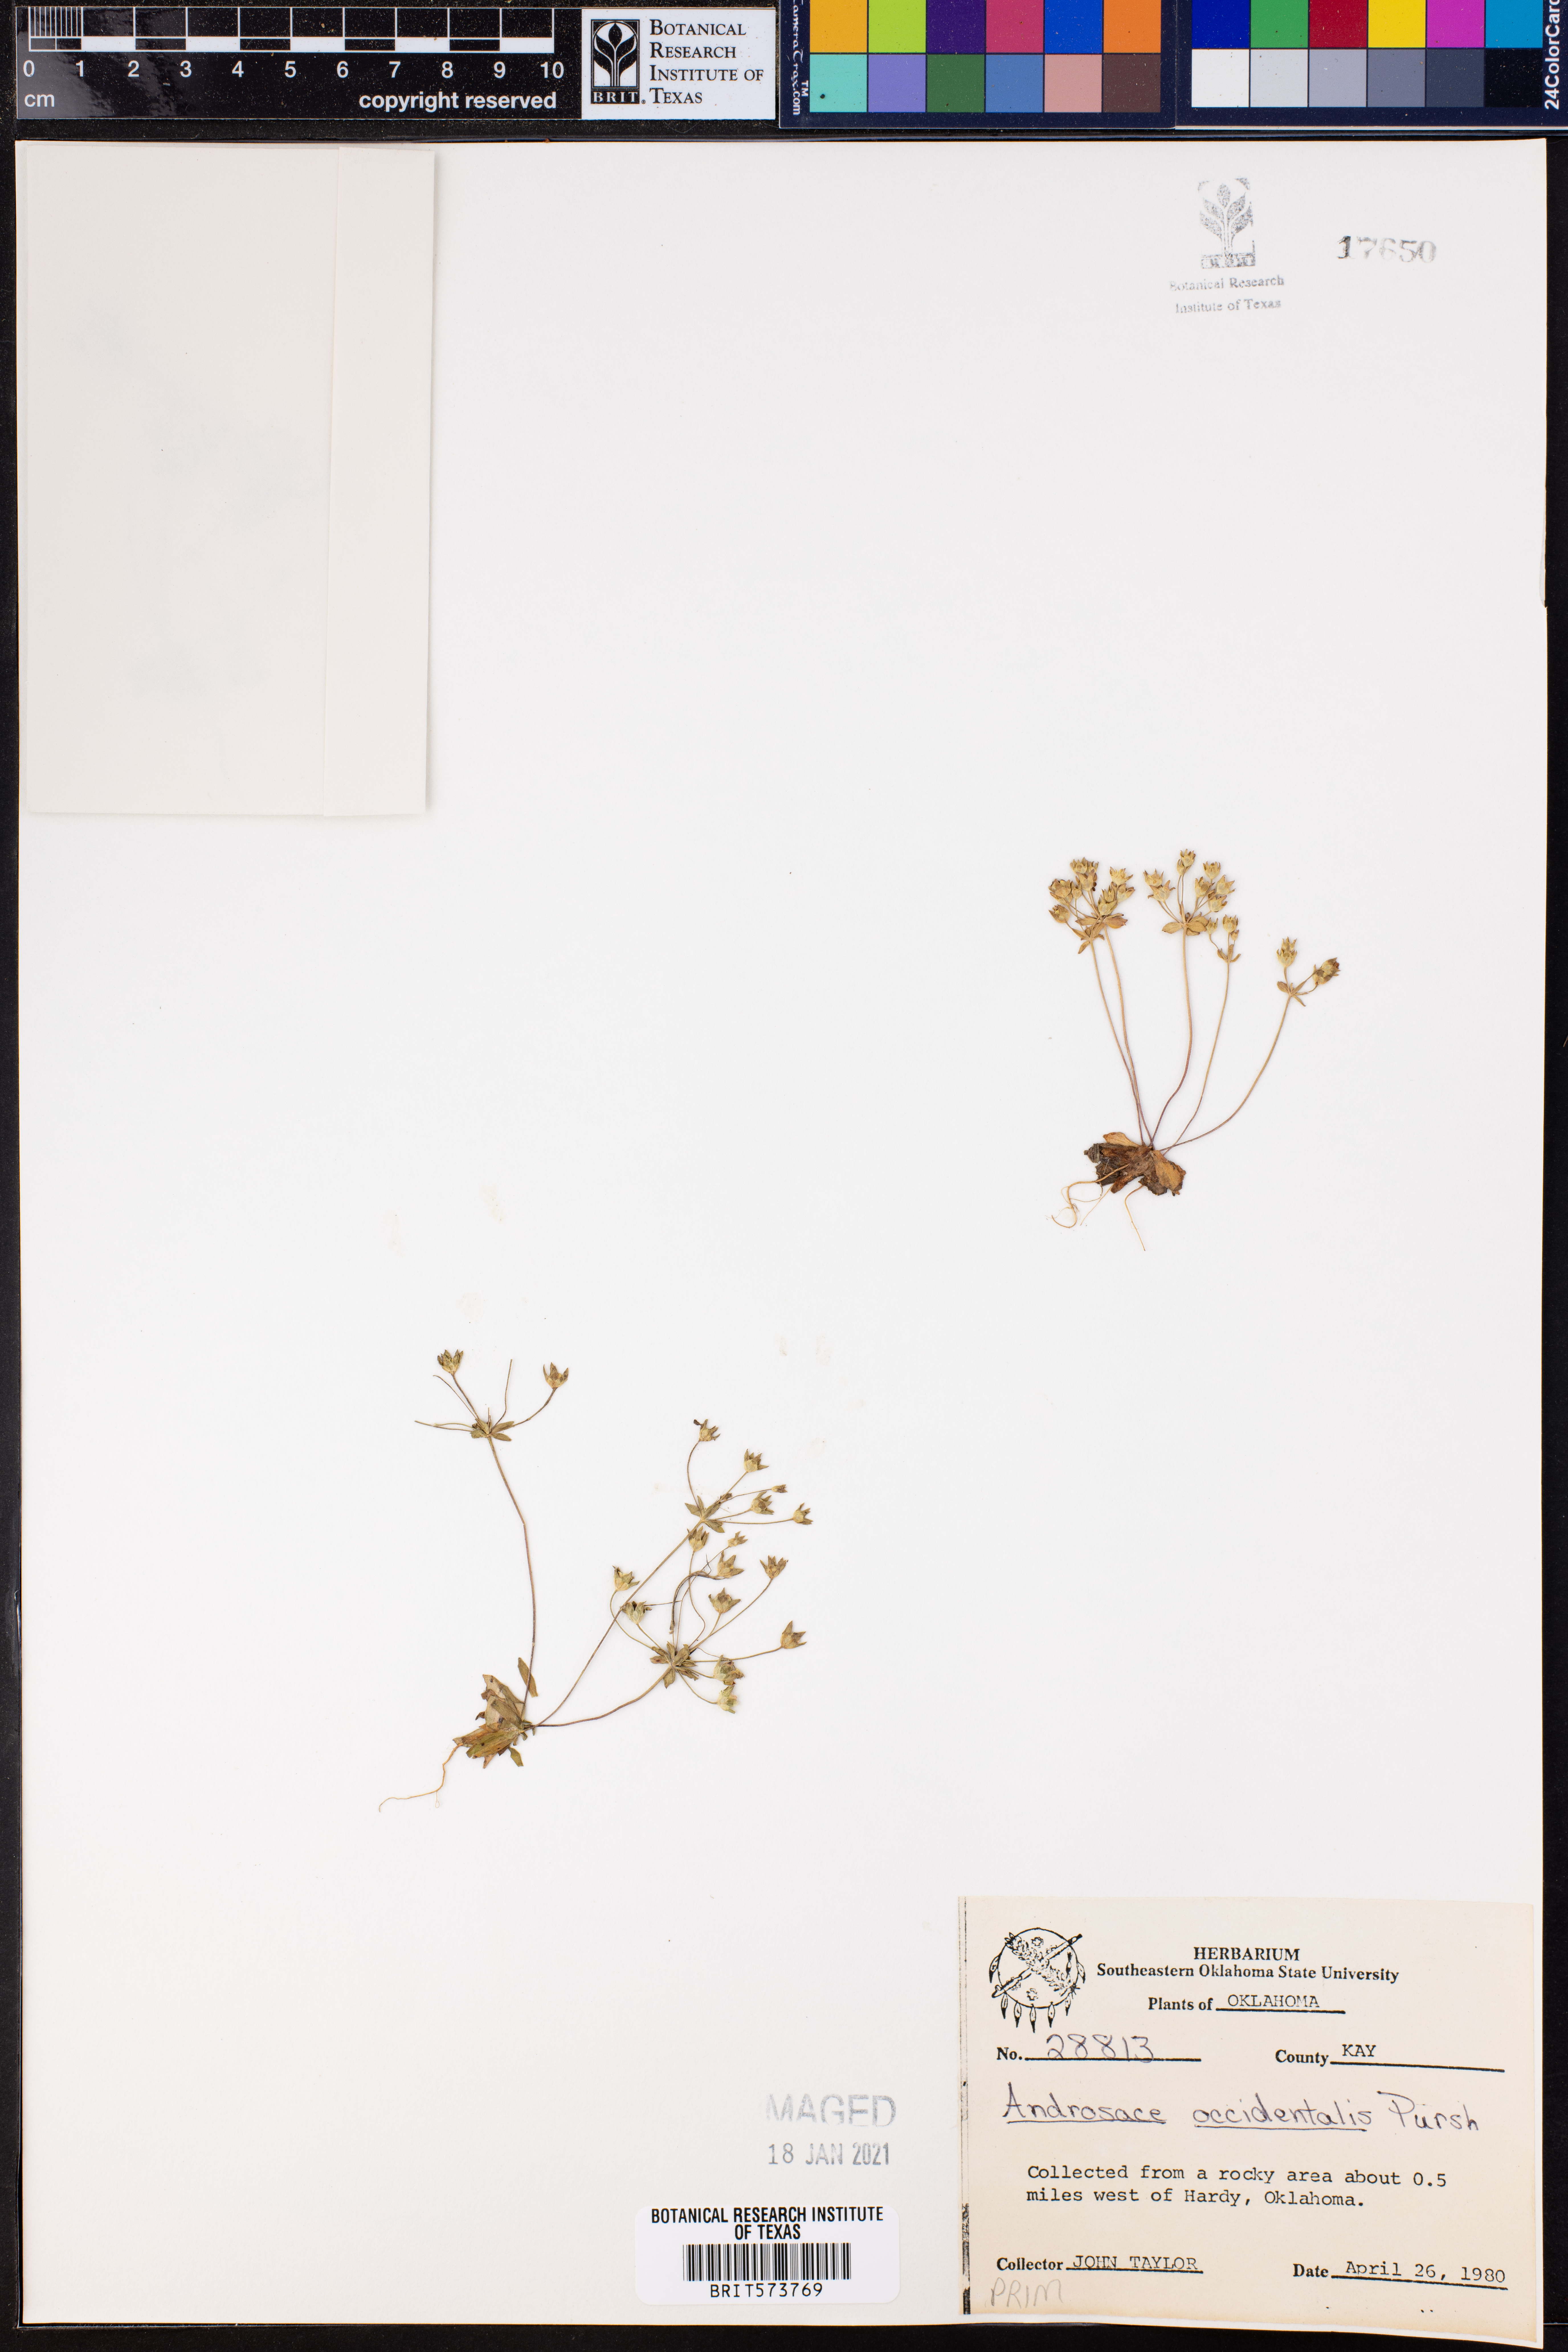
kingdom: Plantae
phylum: Tracheophyta
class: Magnoliopsida
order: Ericales
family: Primulaceae
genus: Androsace
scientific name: Androsace occidentalis
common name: West rock-jasmine
